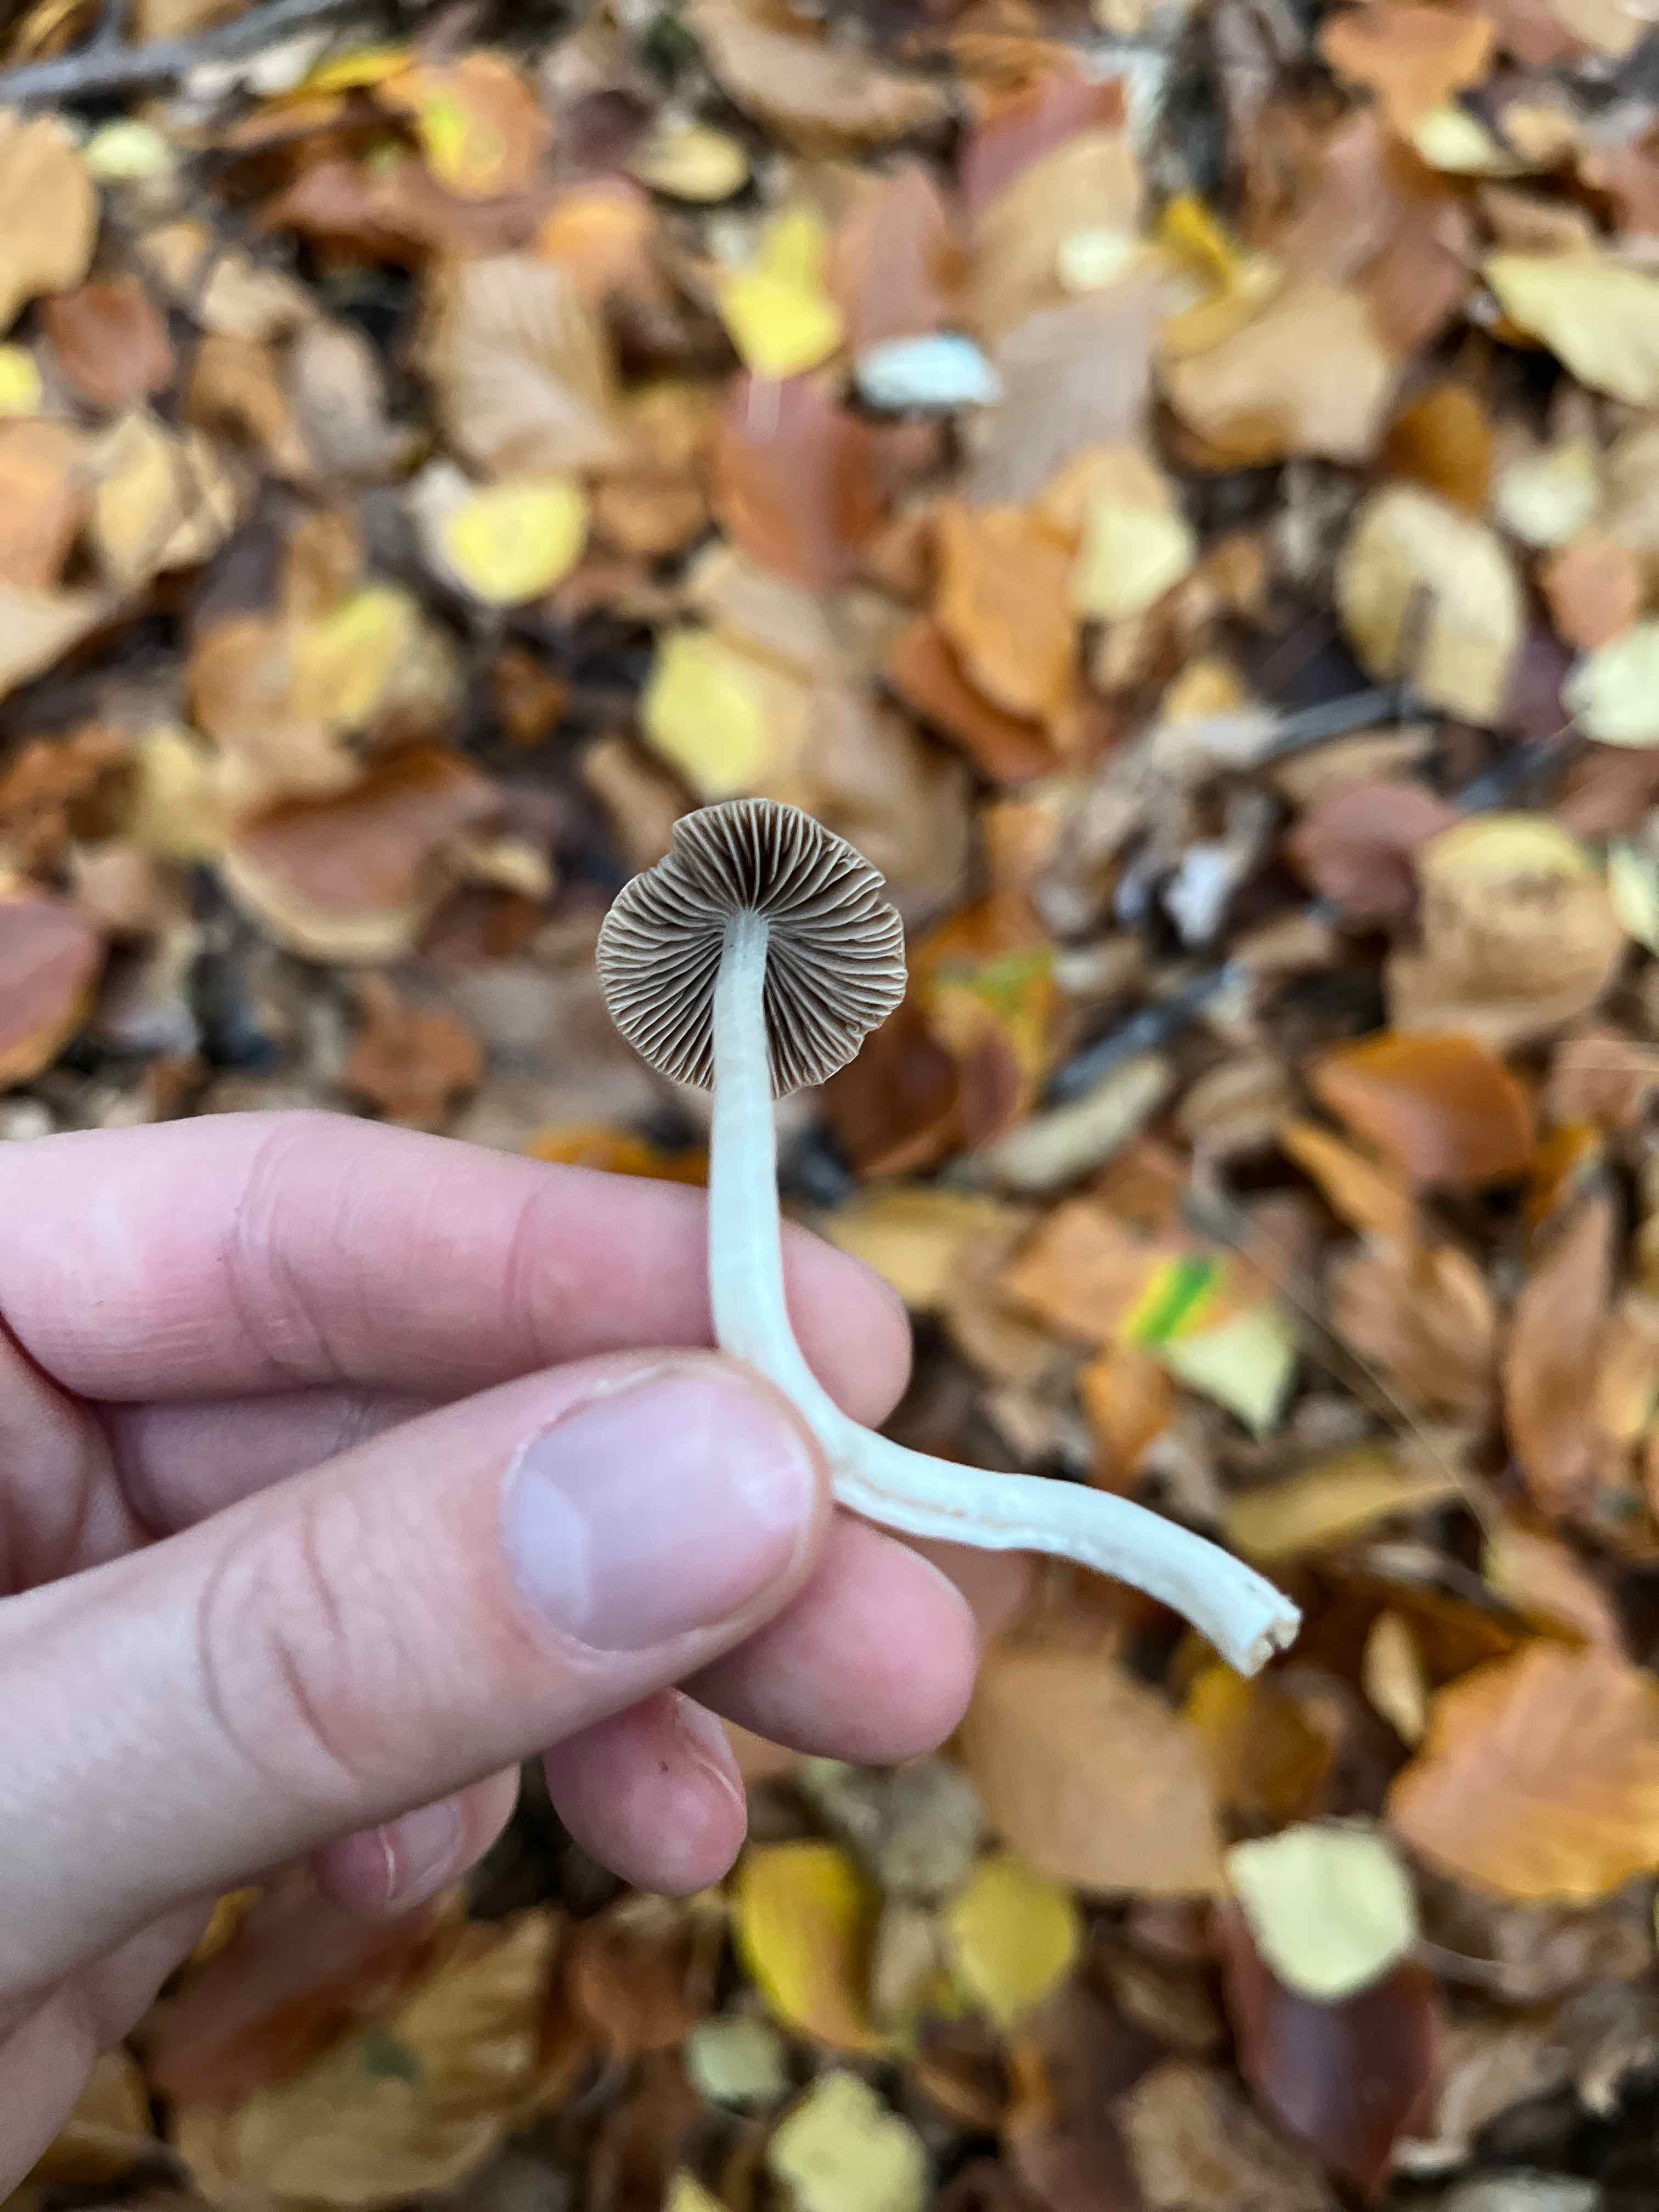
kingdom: Fungi
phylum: Basidiomycota
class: Agaricomycetes
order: Agaricales
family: Psathyrellaceae
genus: Psathyrella
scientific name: Psathyrella
